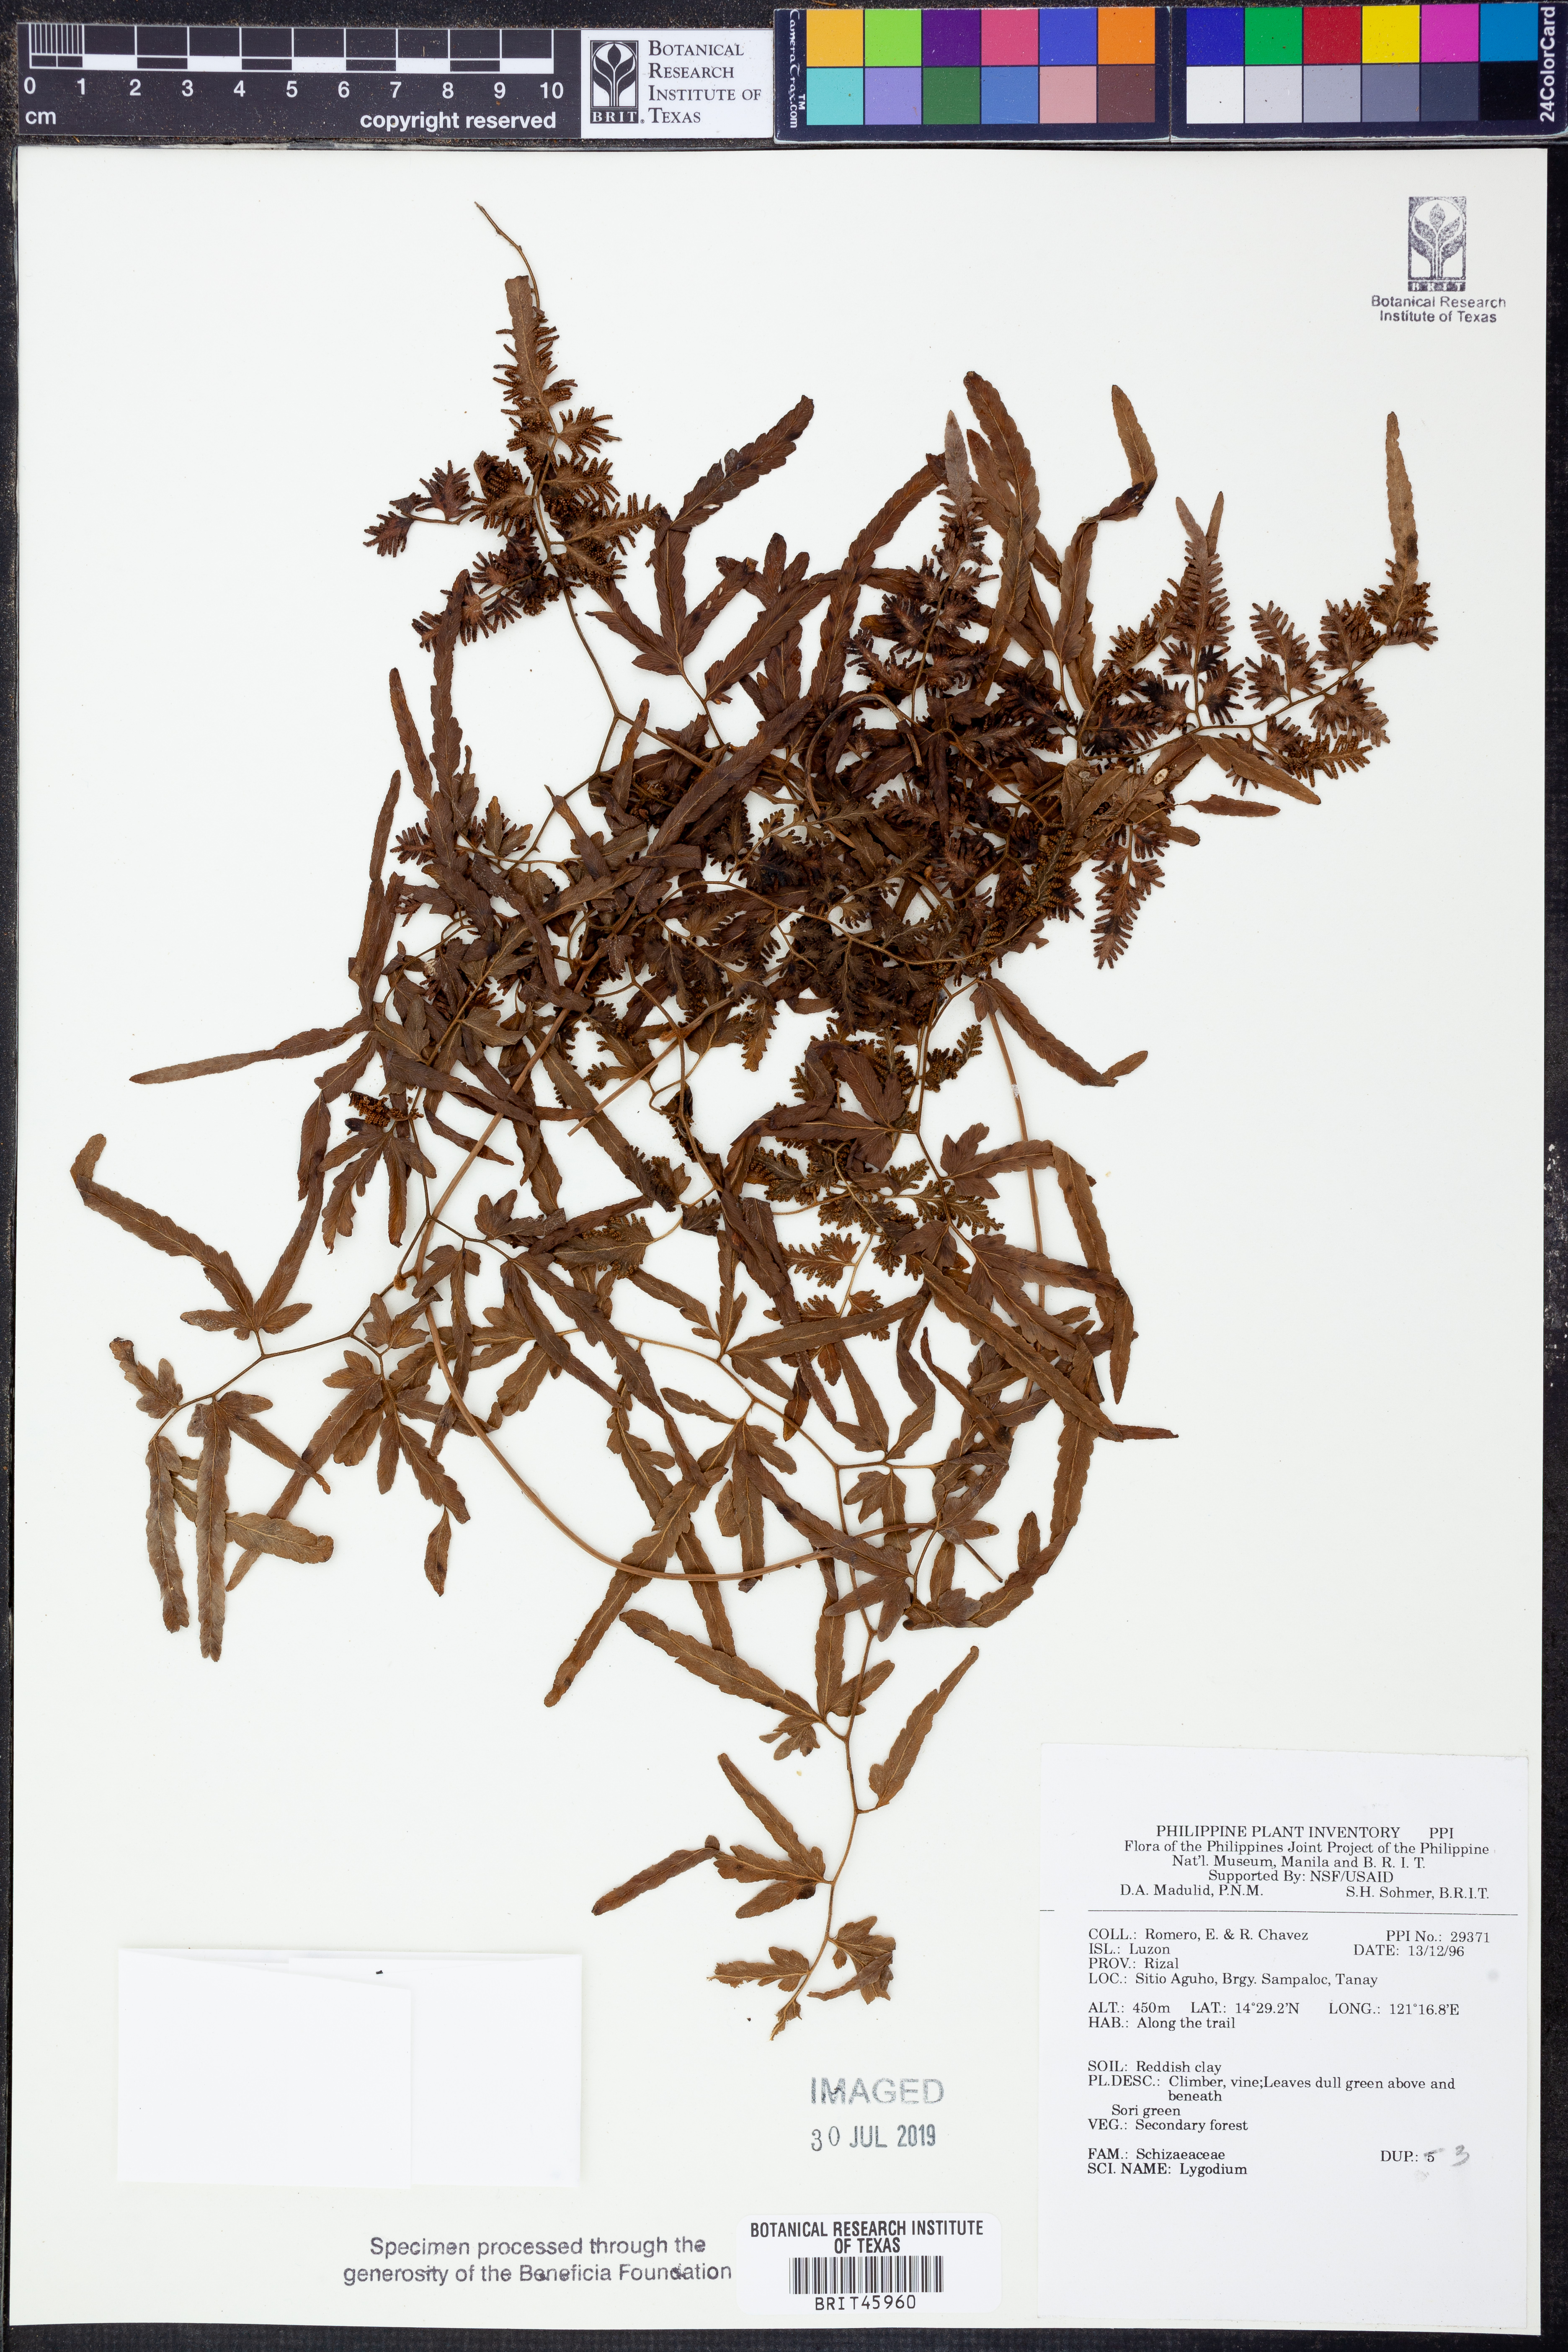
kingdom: Plantae
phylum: Tracheophyta
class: Polypodiopsida
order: Schizaeales
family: Lygodiaceae
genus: Lygodium
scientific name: Lygodium
